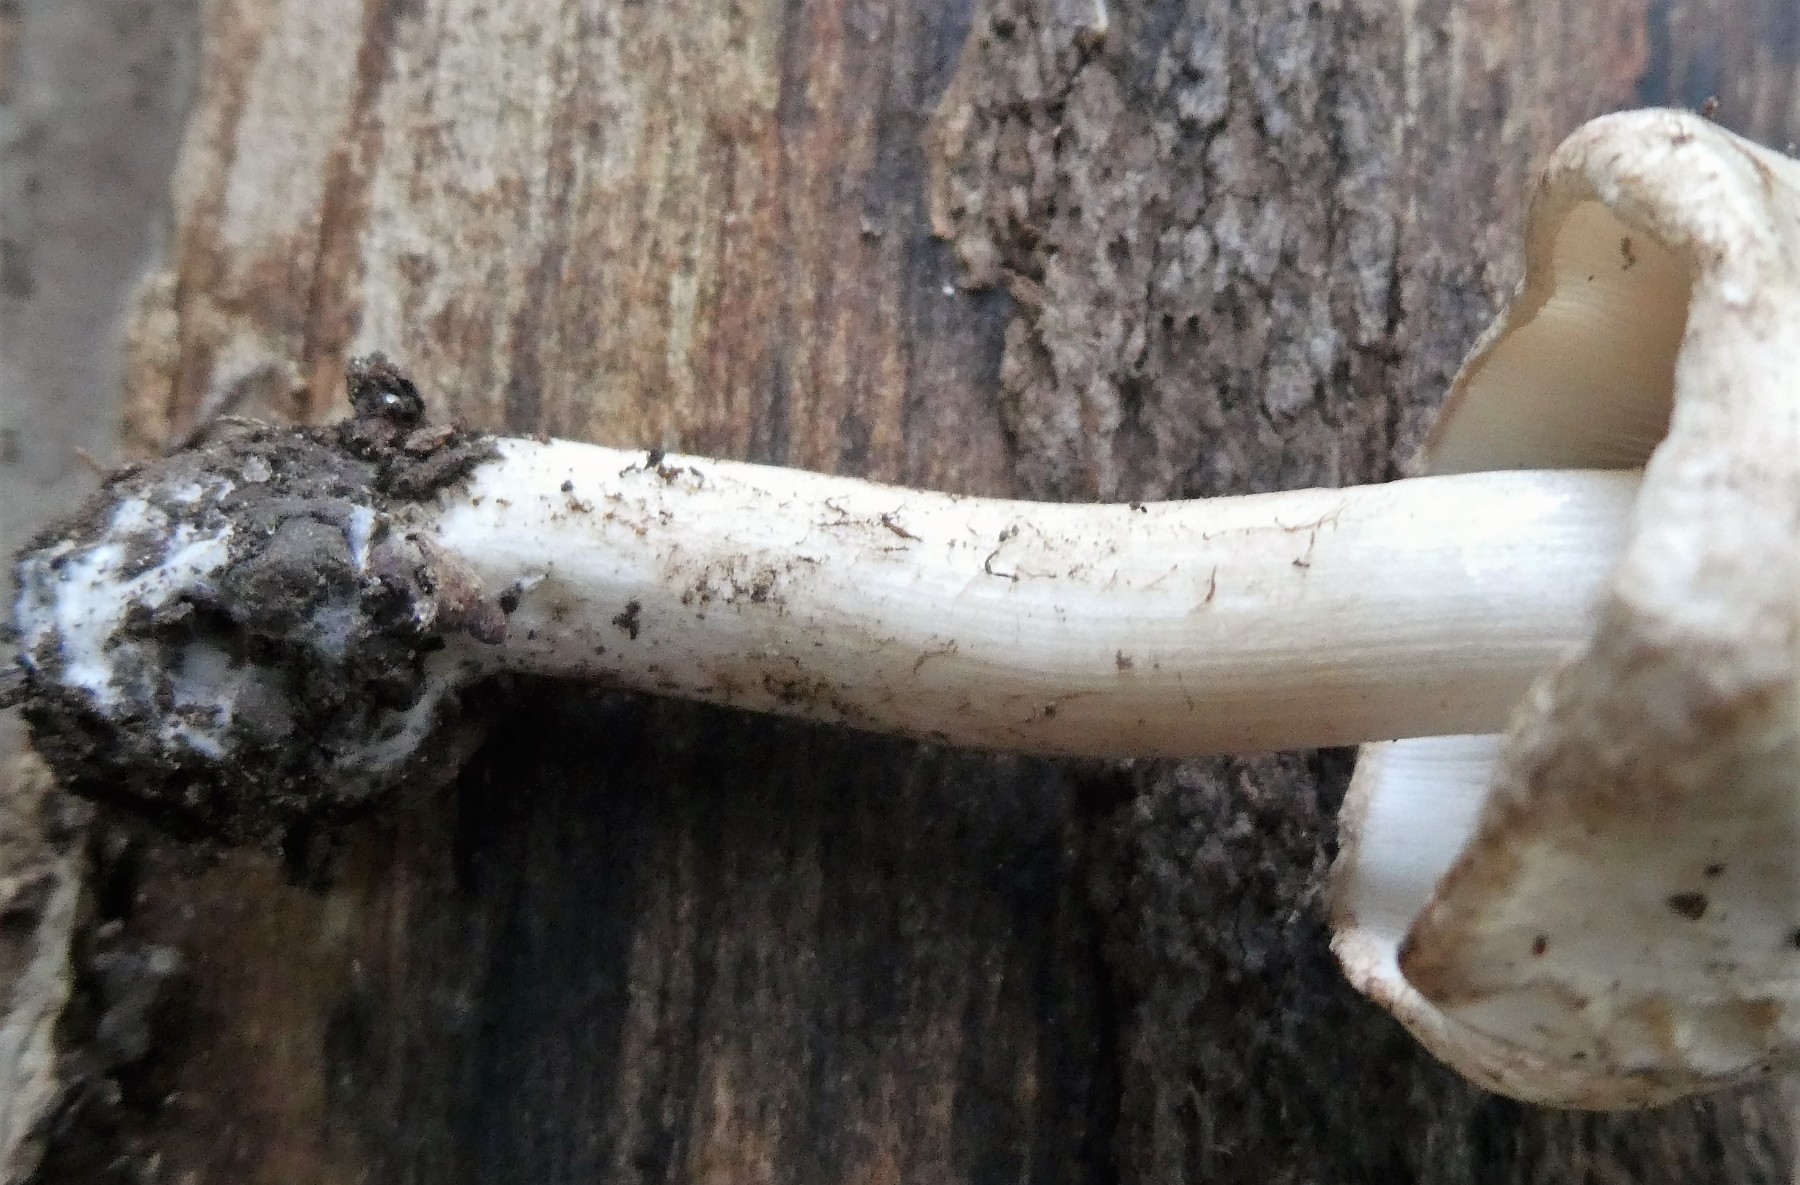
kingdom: Fungi
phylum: Basidiomycota
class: Agaricomycetes
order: Agaricales
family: Inocybaceae
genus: Inocybe
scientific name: Inocybe corydalina
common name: grønpuklet trævlhat
